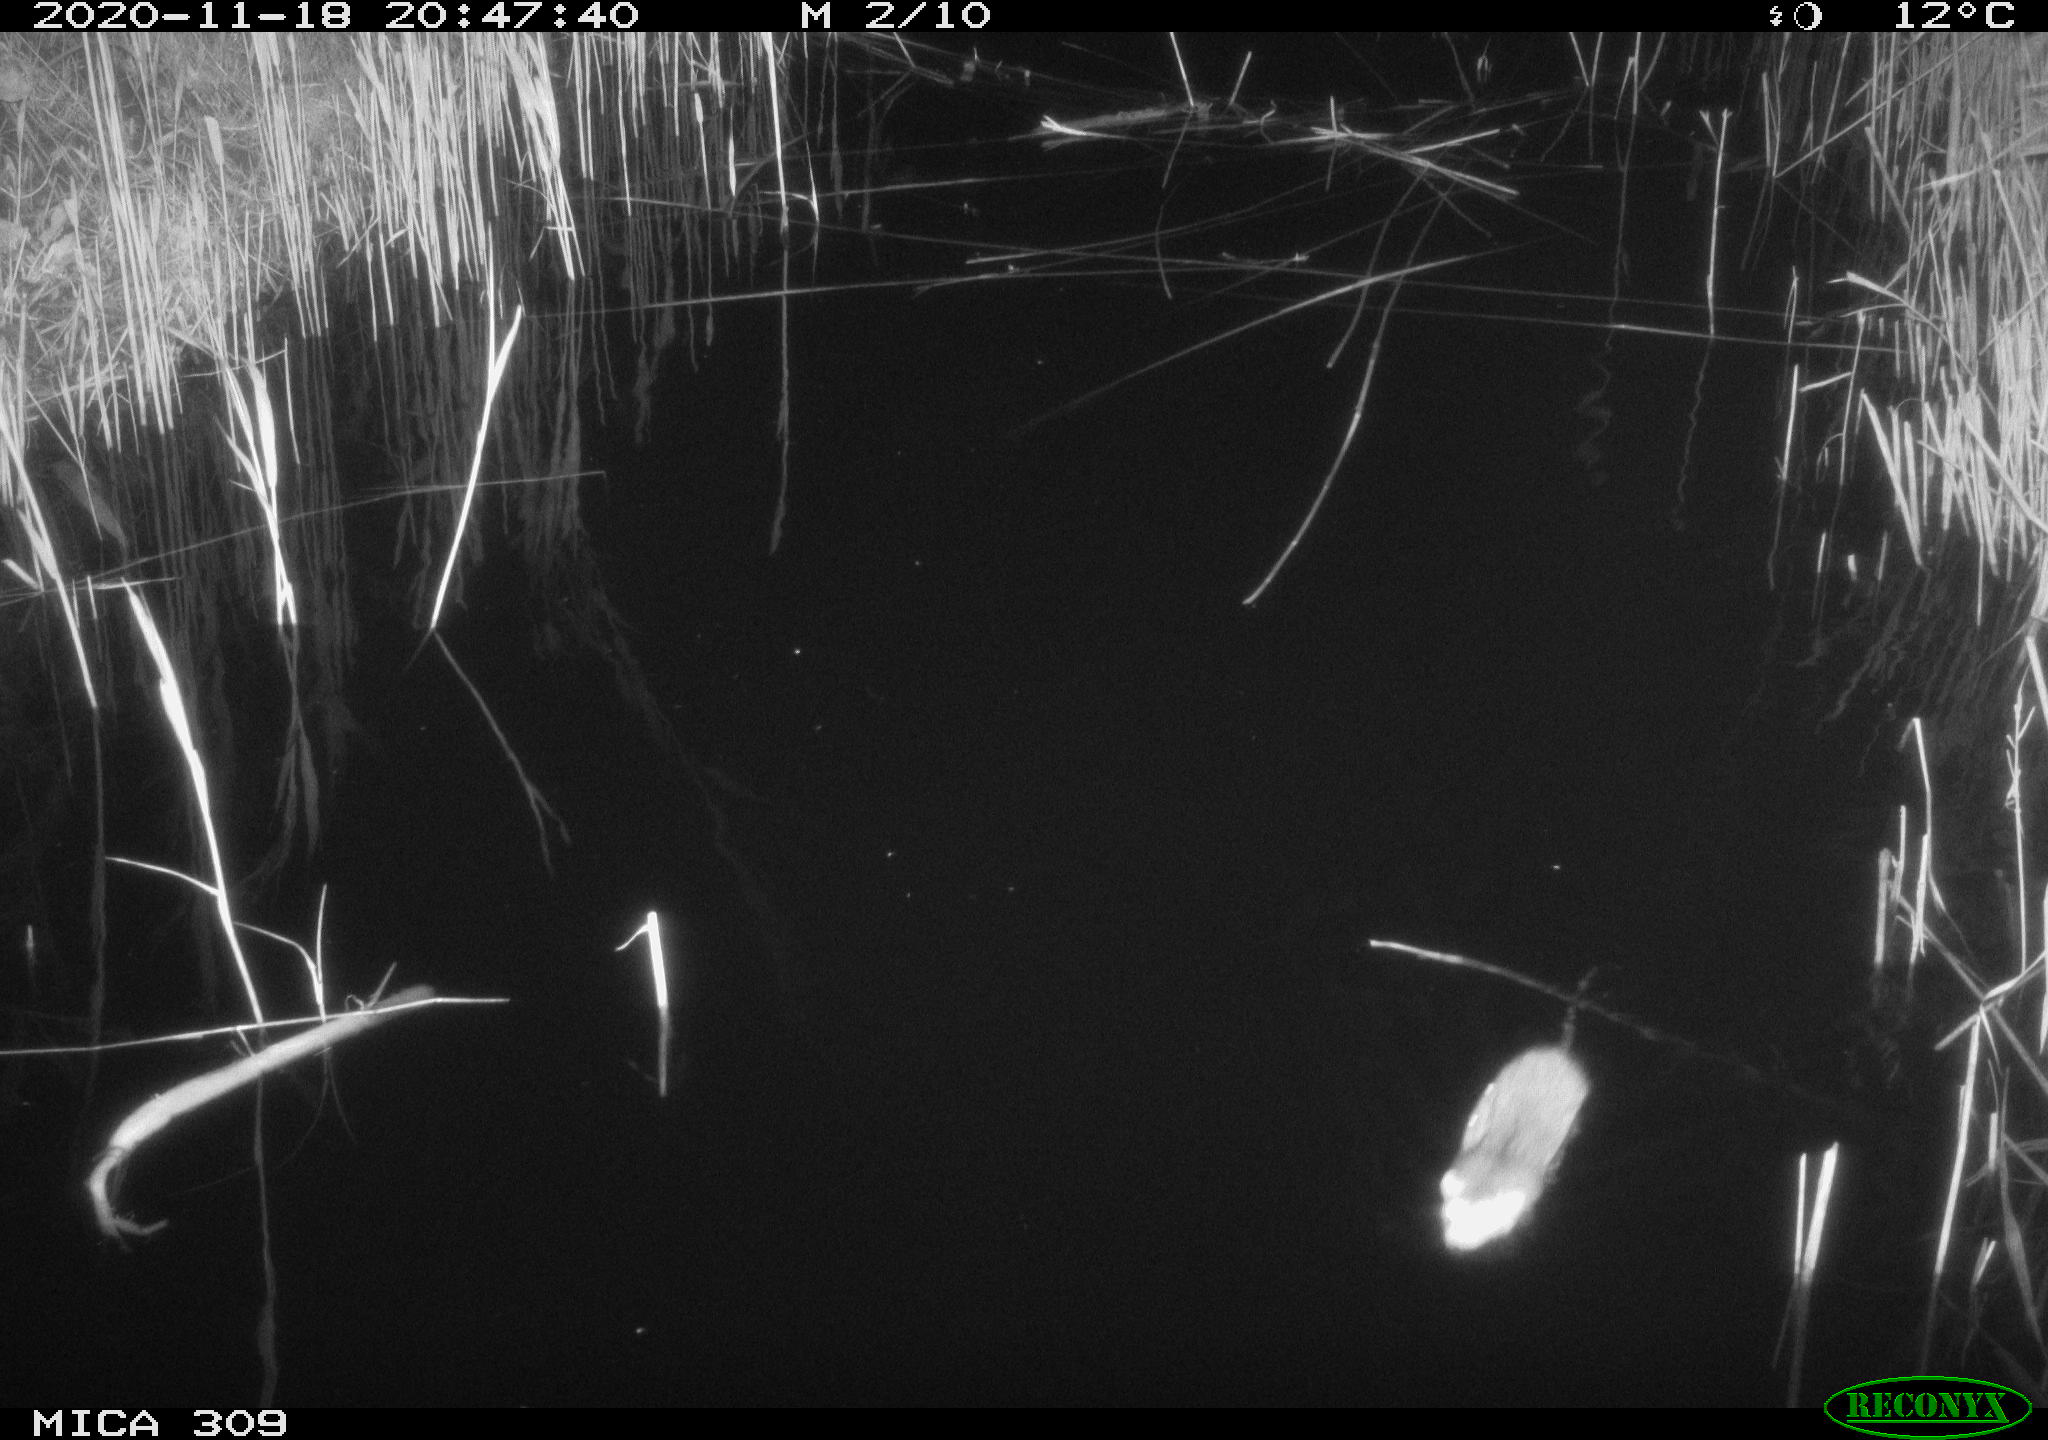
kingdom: Animalia
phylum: Chordata
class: Mammalia
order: Rodentia
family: Muridae
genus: Rattus
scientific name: Rattus norvegicus
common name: Brown rat
